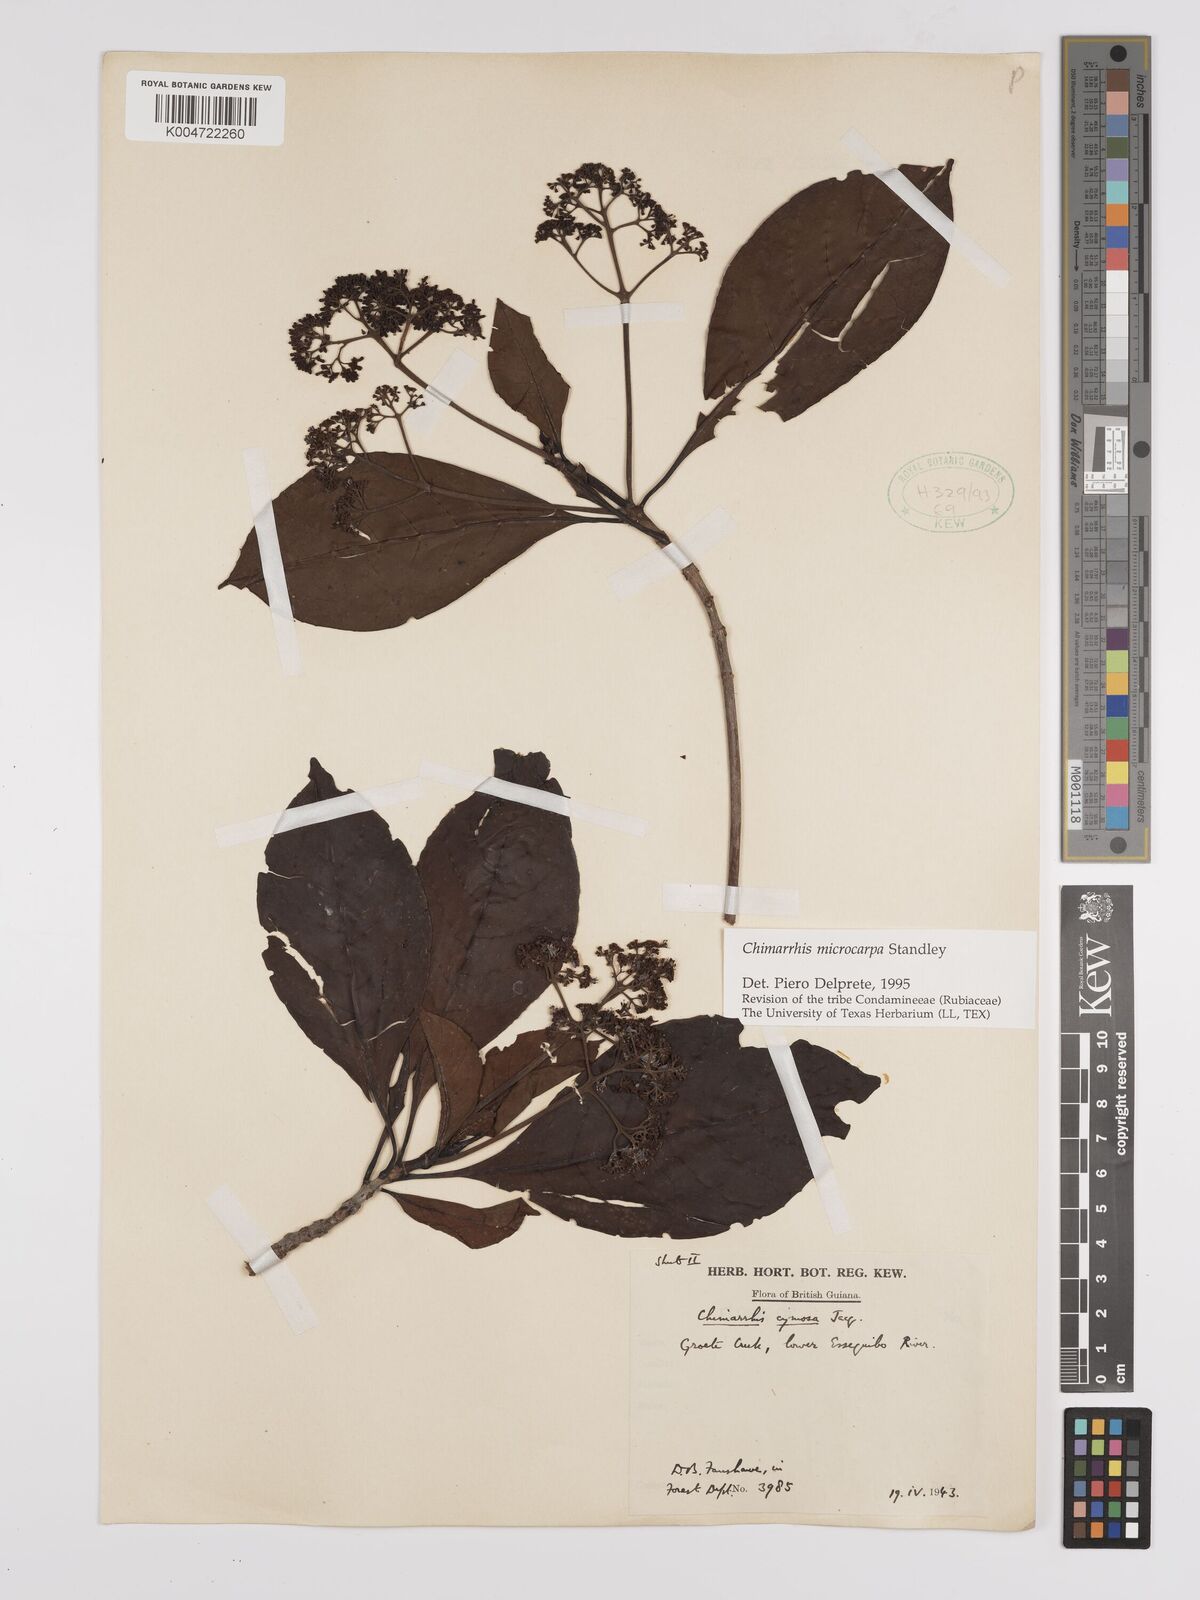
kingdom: Plantae
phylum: Tracheophyta
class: Magnoliopsida
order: Gentianales
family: Rubiaceae
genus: Chimarrhis
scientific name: Chimarrhis microcarpa
